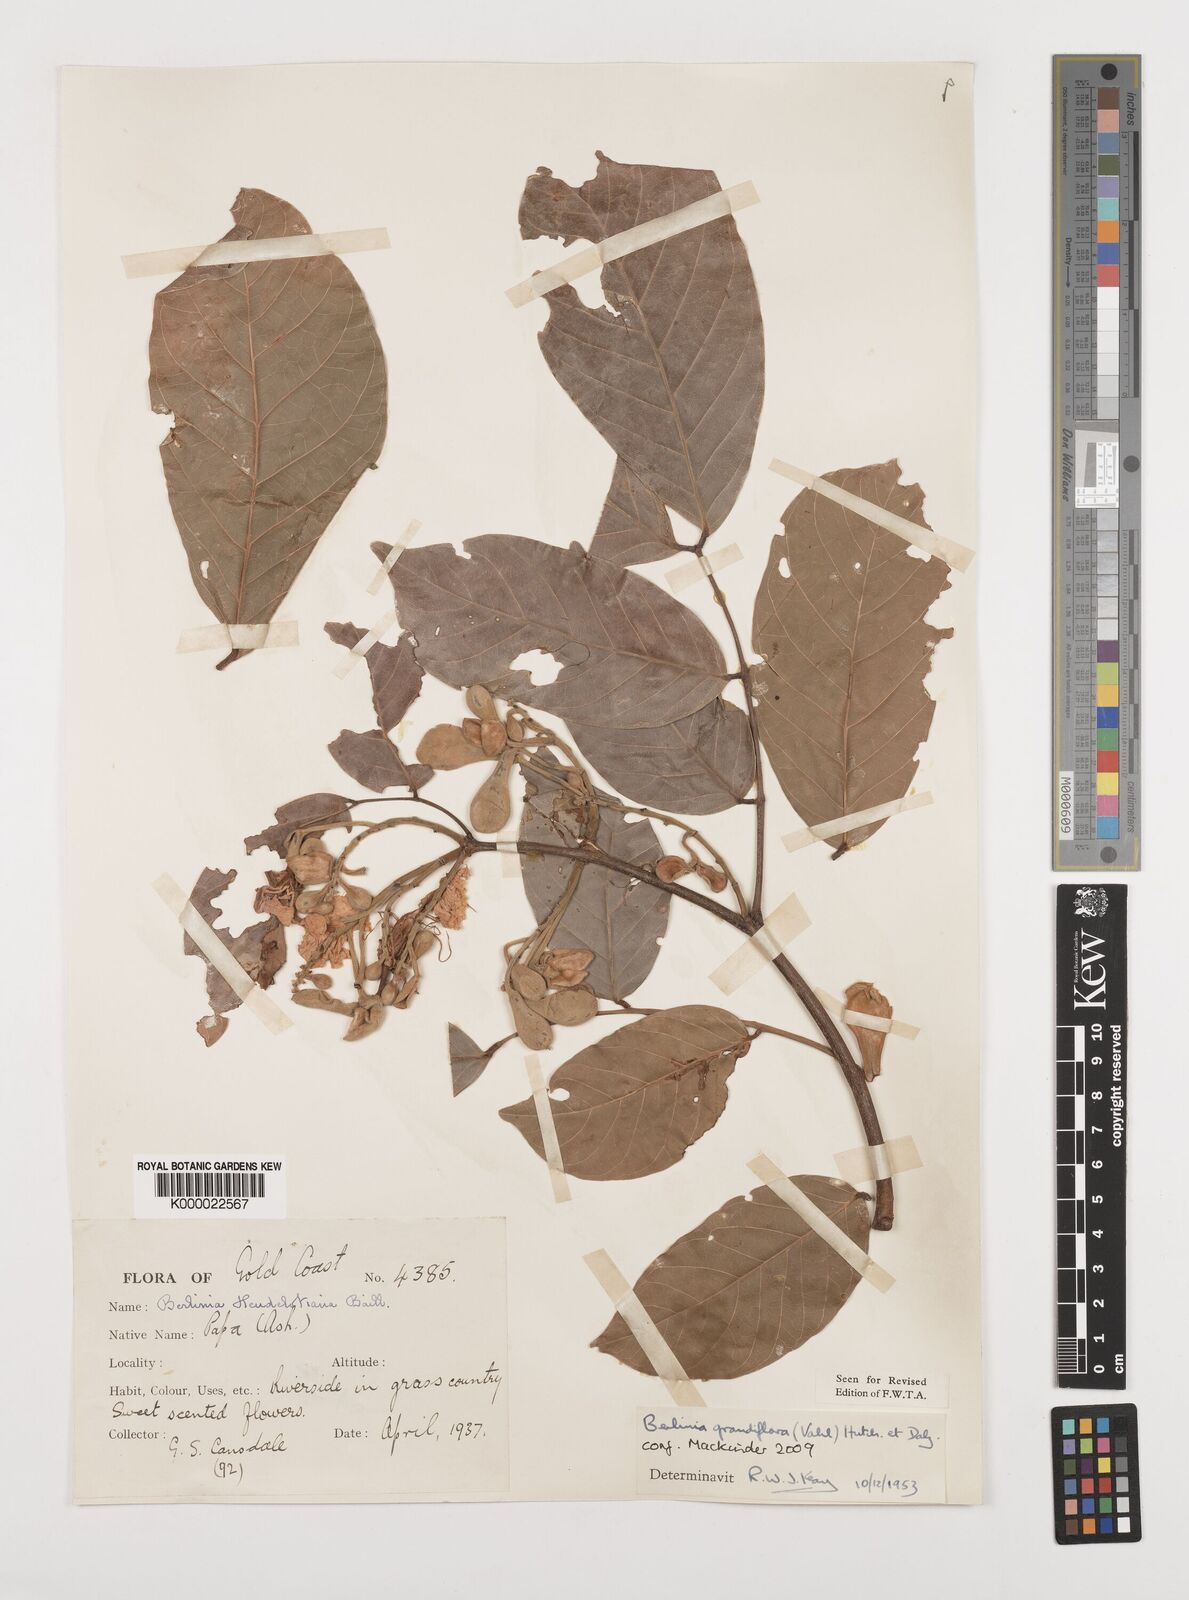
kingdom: Plantae
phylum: Tracheophyta
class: Magnoliopsida
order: Fabales
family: Fabaceae
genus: Berlinia
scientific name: Berlinia grandiflora
